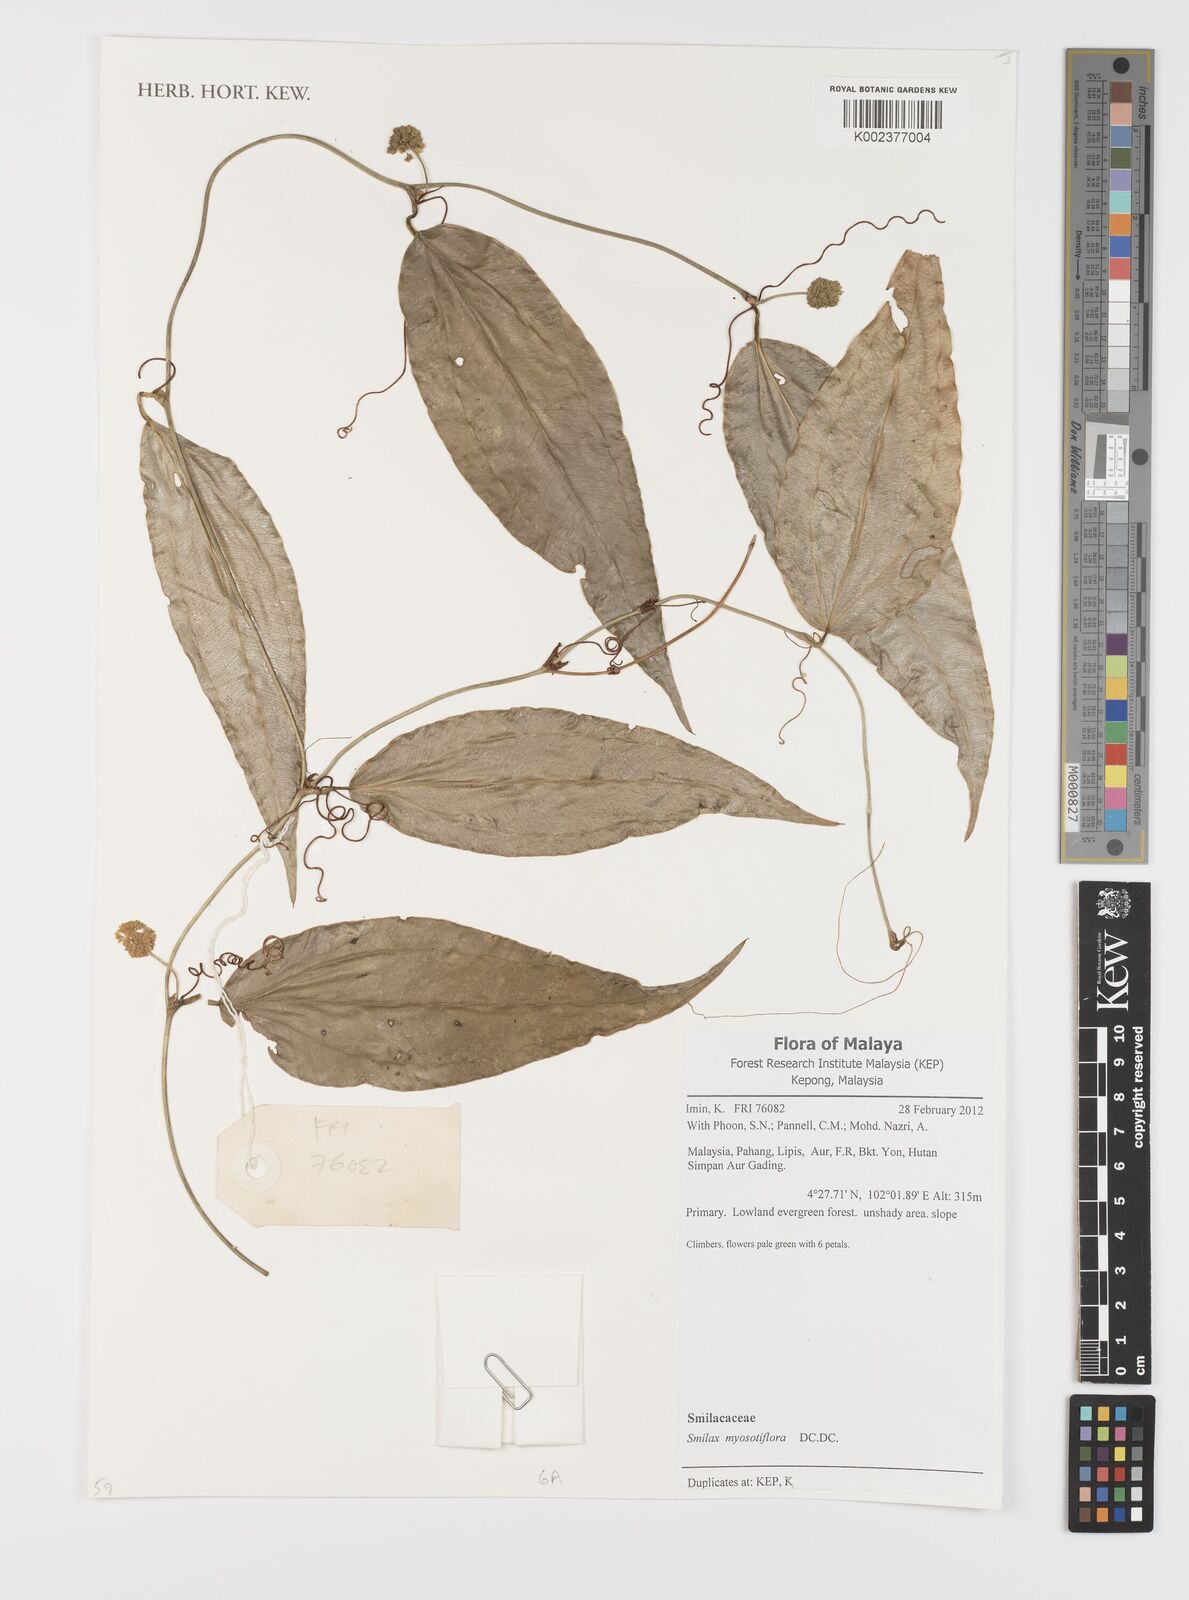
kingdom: Plantae
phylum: Tracheophyta
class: Liliopsida
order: Liliales
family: Smilacaceae
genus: Smilax
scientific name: Smilax myosotiflora
